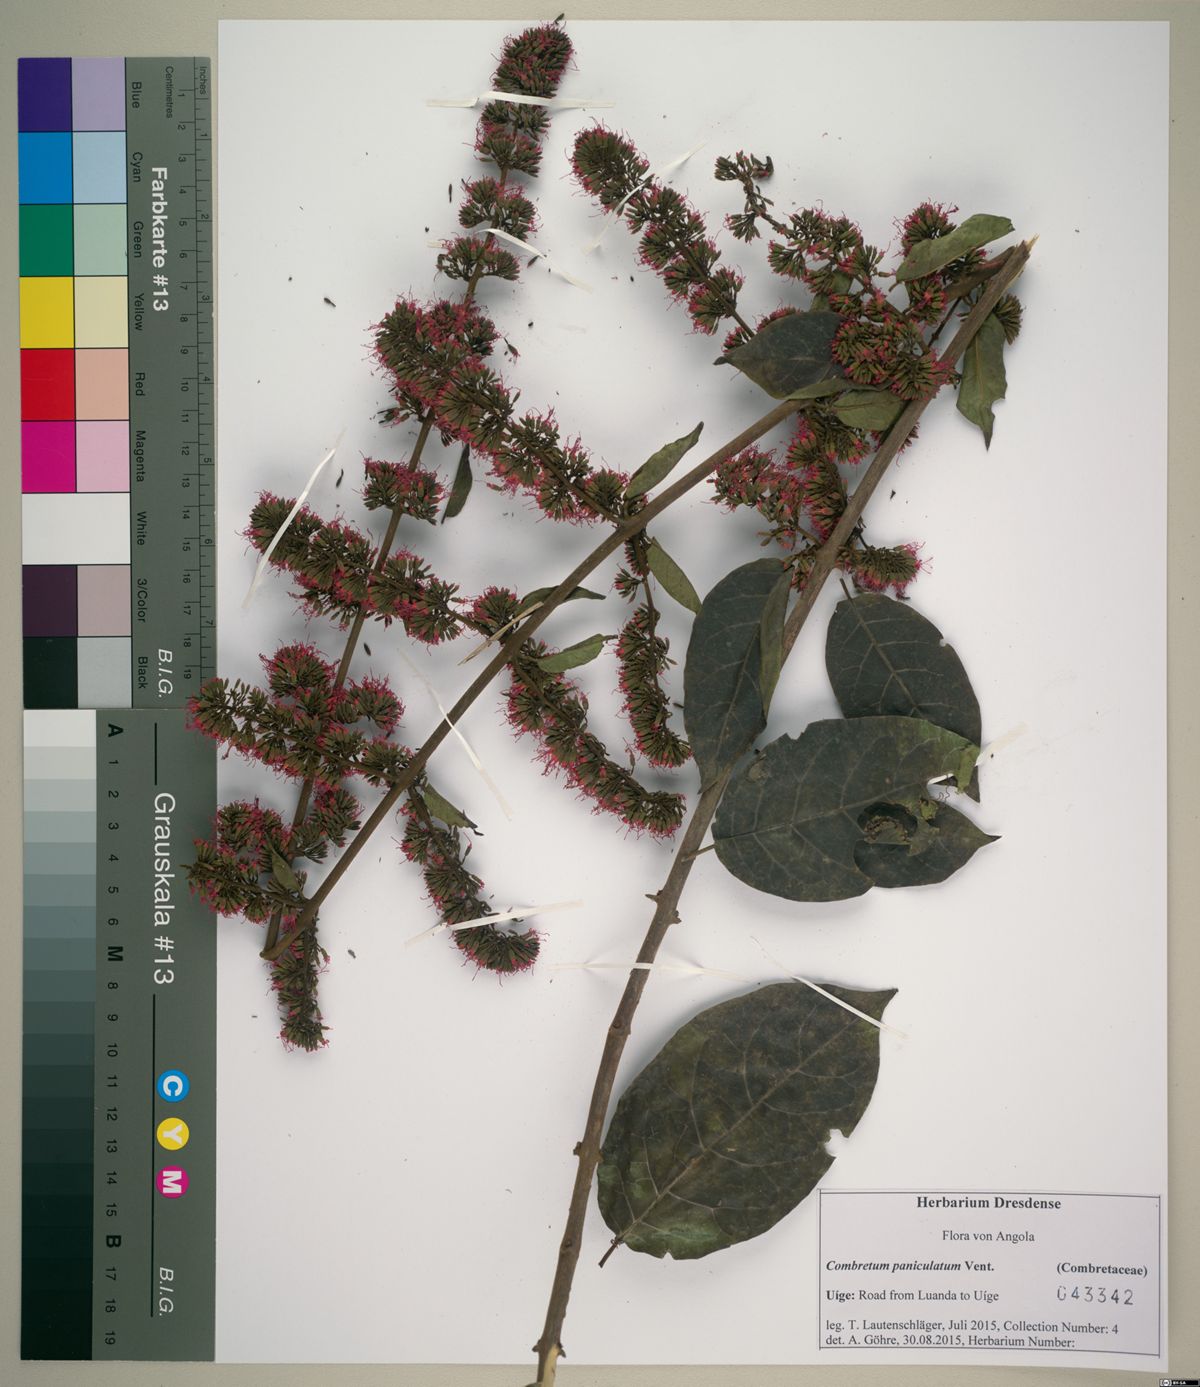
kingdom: Plantae
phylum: Tracheophyta
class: Magnoliopsida
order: Myrtales
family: Combretaceae
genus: Combretum
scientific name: Combretum paniculatum
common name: Fire vine
